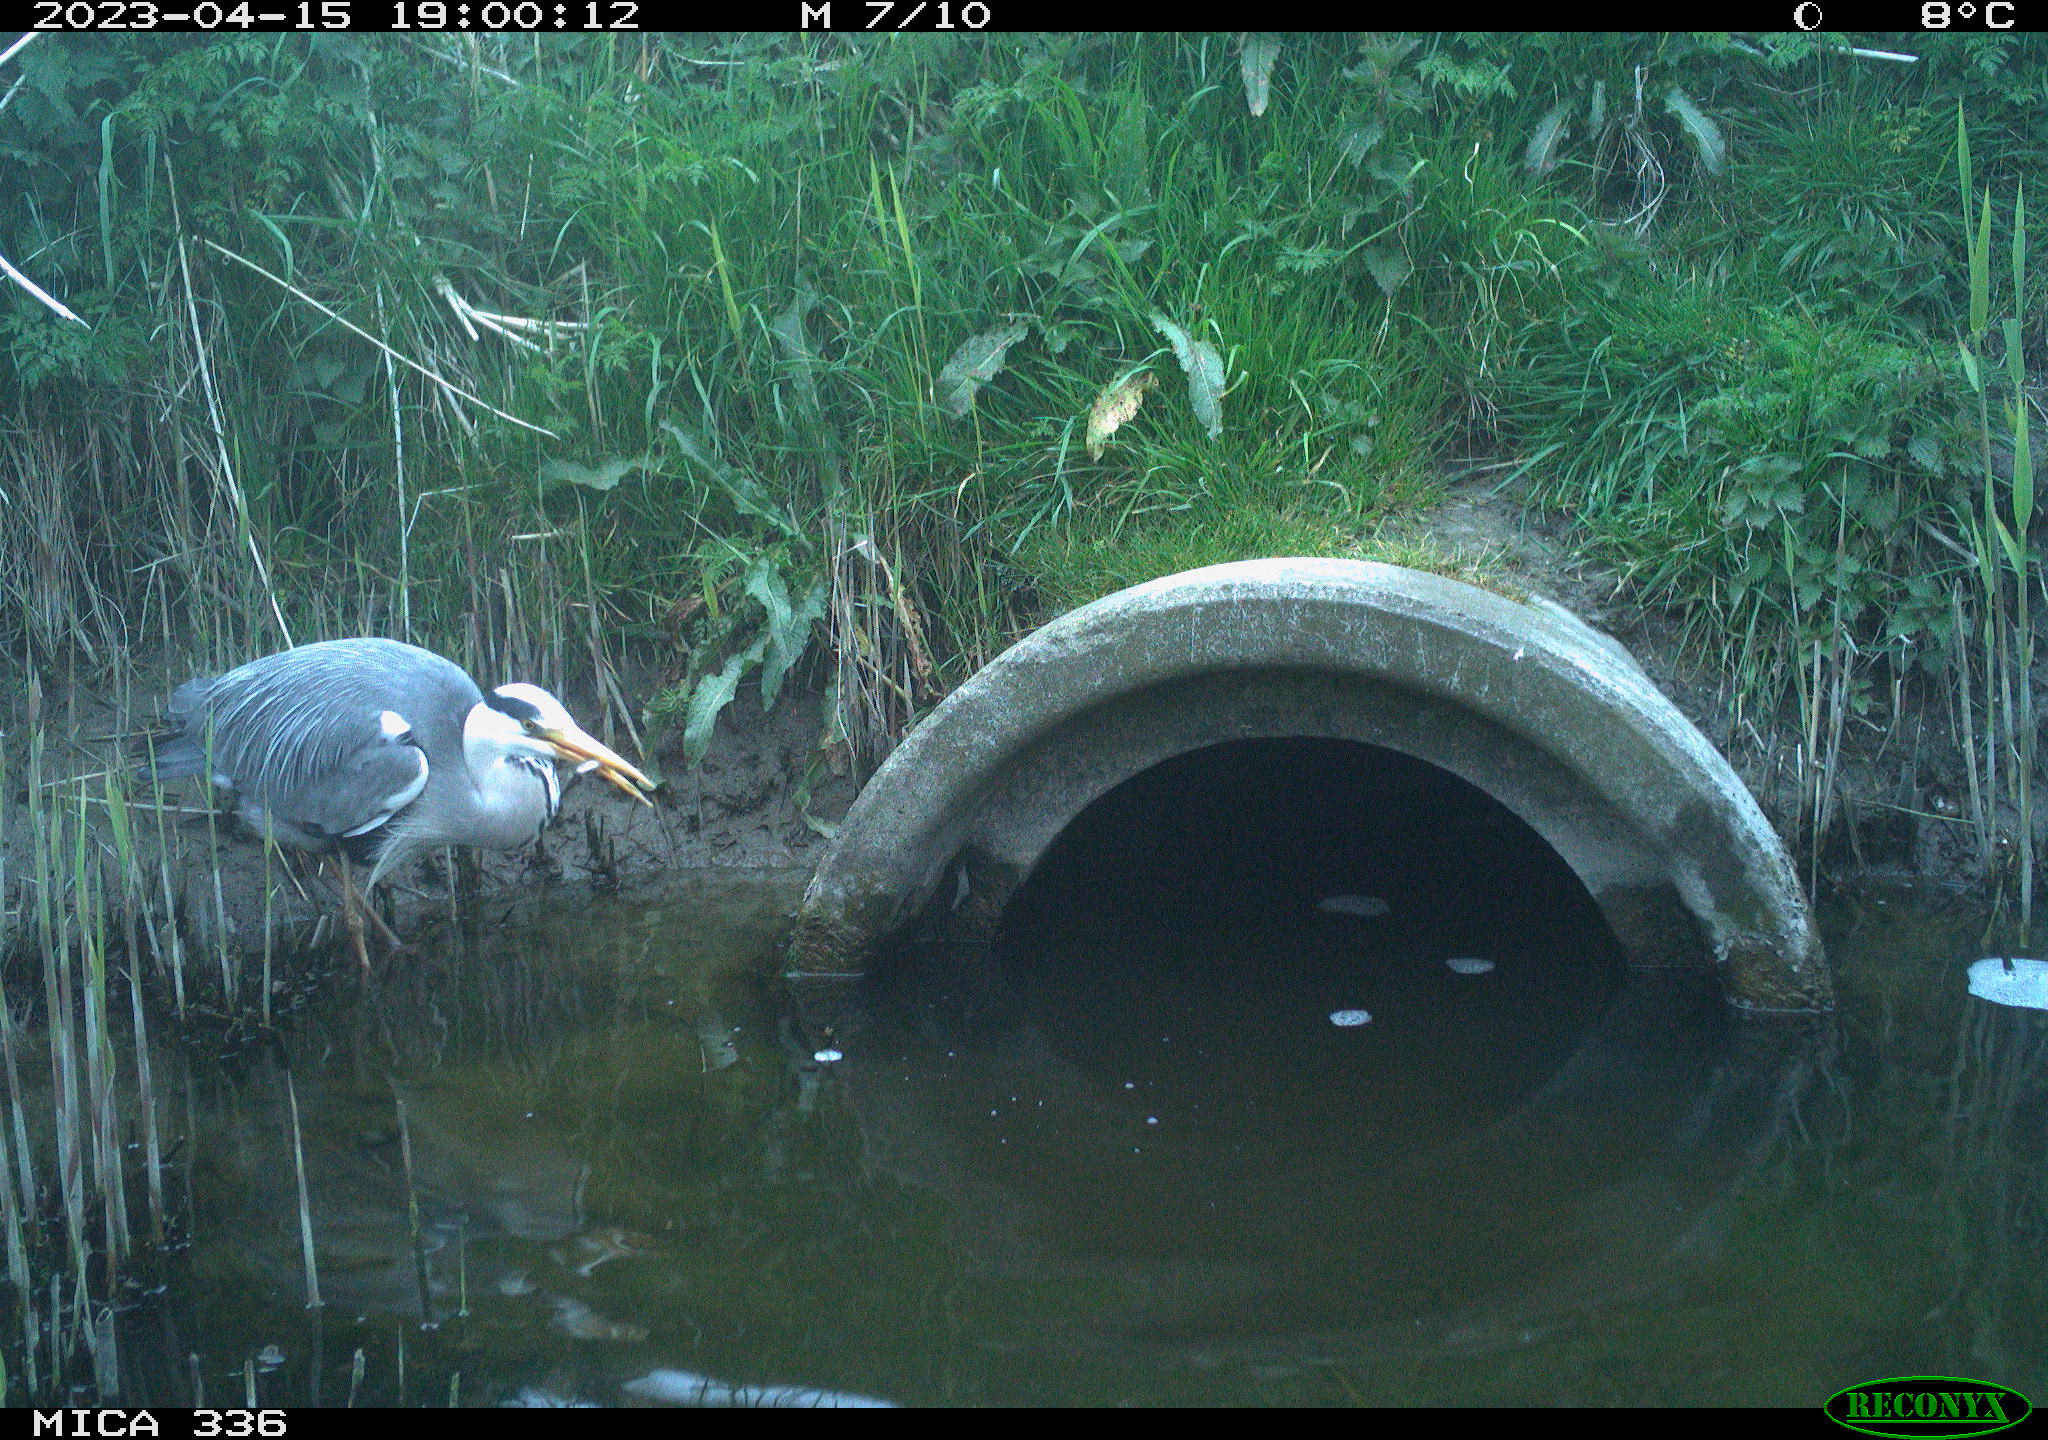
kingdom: Animalia
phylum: Chordata
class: Aves
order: Pelecaniformes
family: Ardeidae
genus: Ardea
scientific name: Ardea
